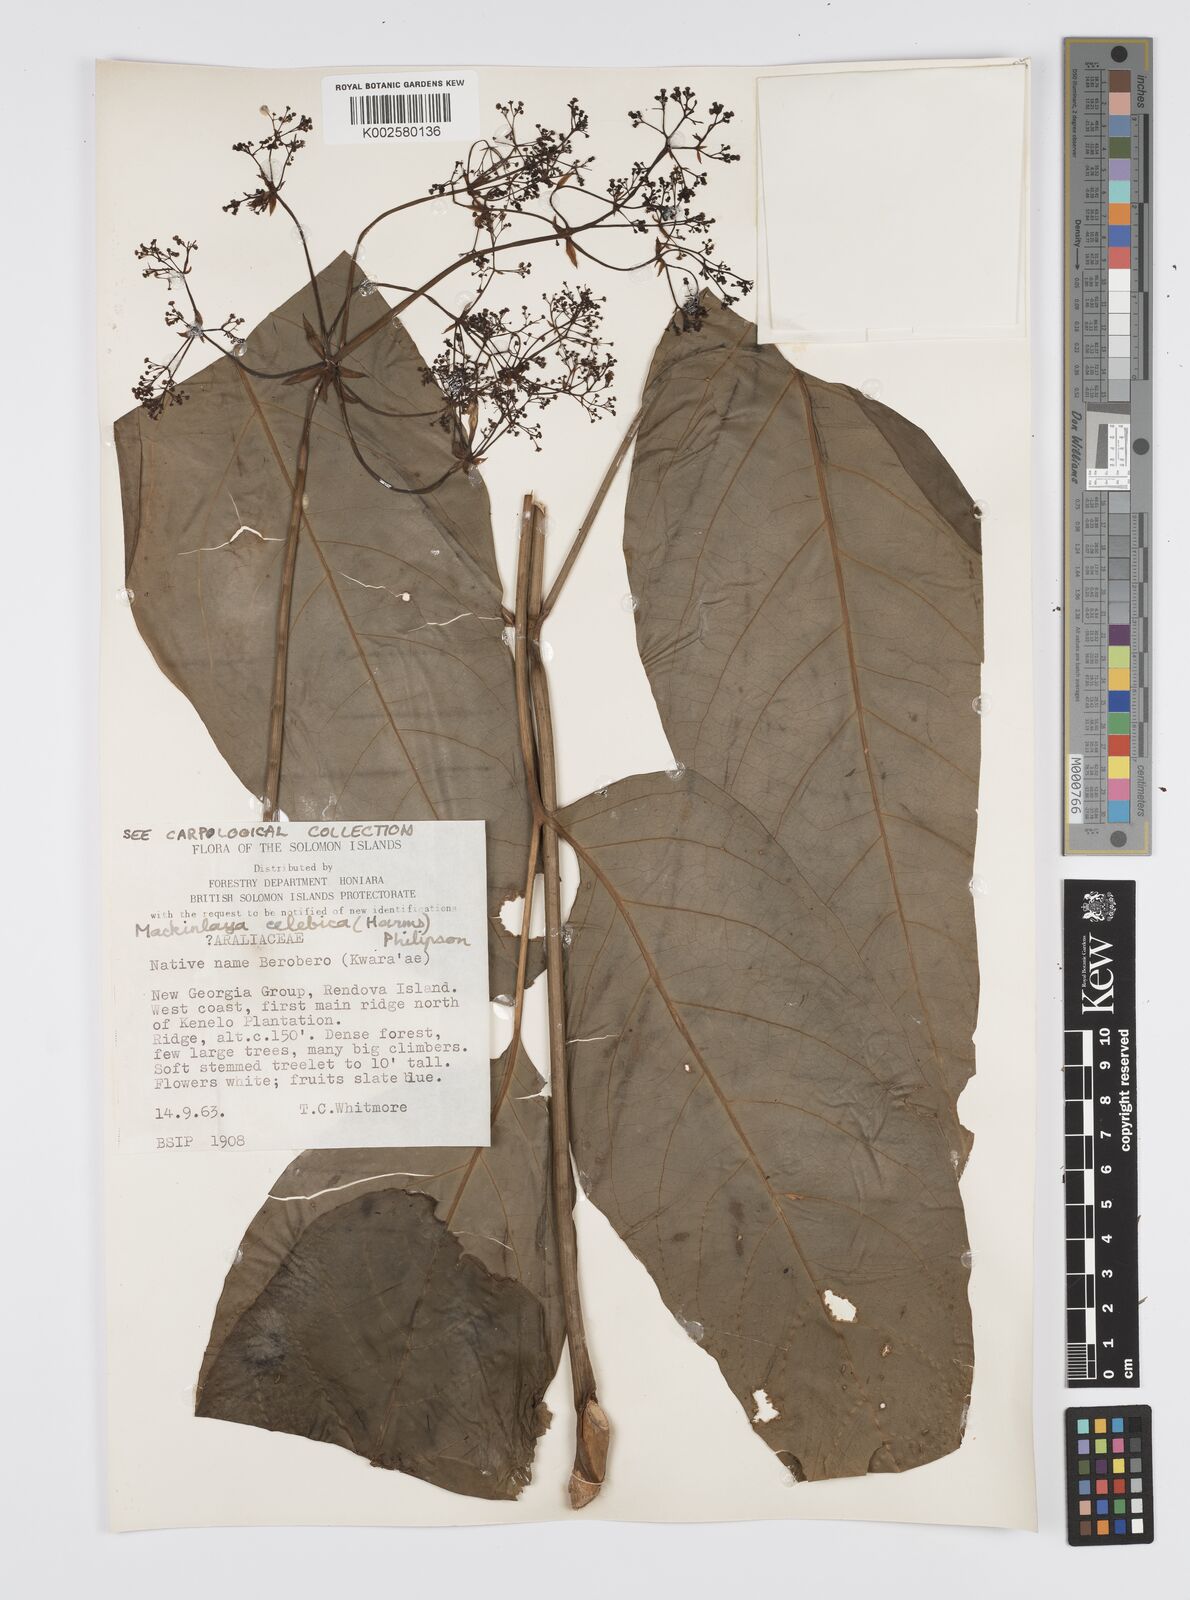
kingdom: Plantae
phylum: Tracheophyta
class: Magnoliopsida
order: Apiales
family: Apiaceae
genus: Mackinlaya
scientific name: Mackinlaya celebica
